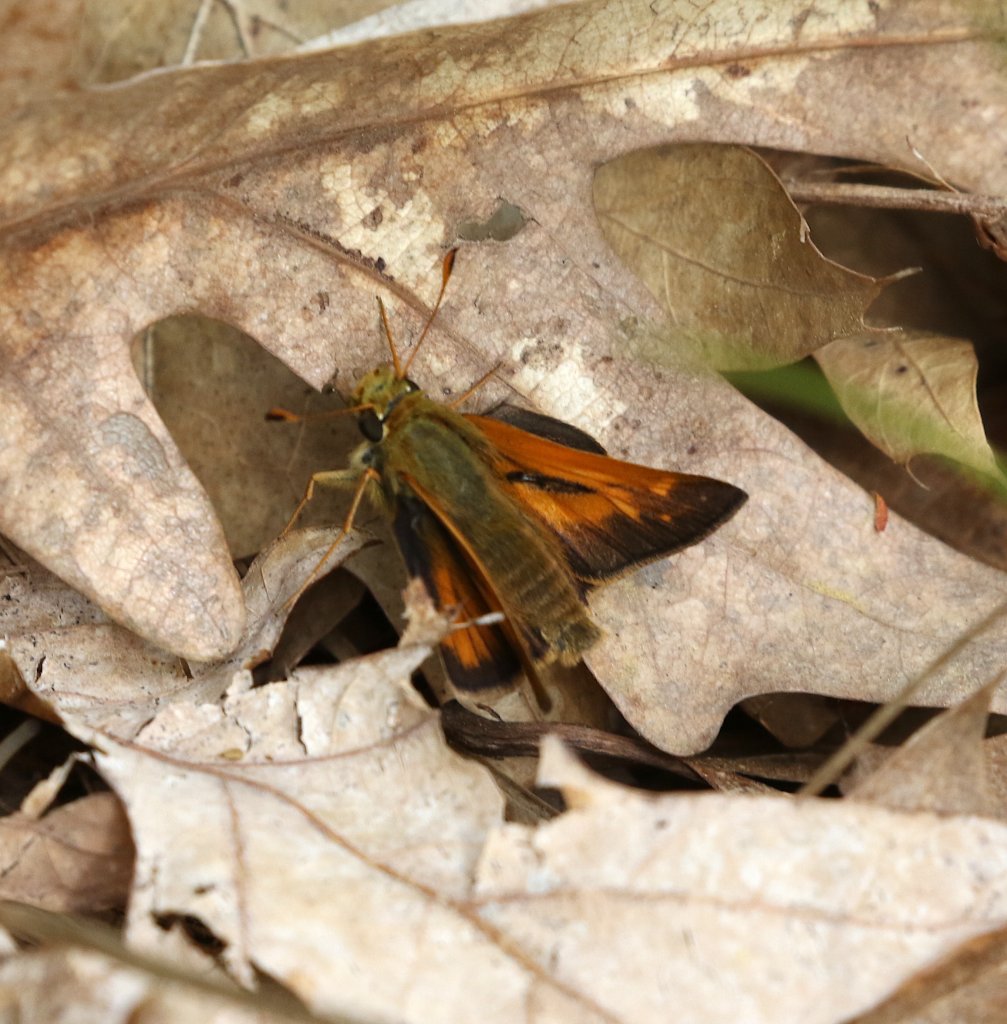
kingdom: Animalia
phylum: Arthropoda
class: Insecta
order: Lepidoptera
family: Hesperiidae
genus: Polites
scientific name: Polites
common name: Long Dash Skipper
